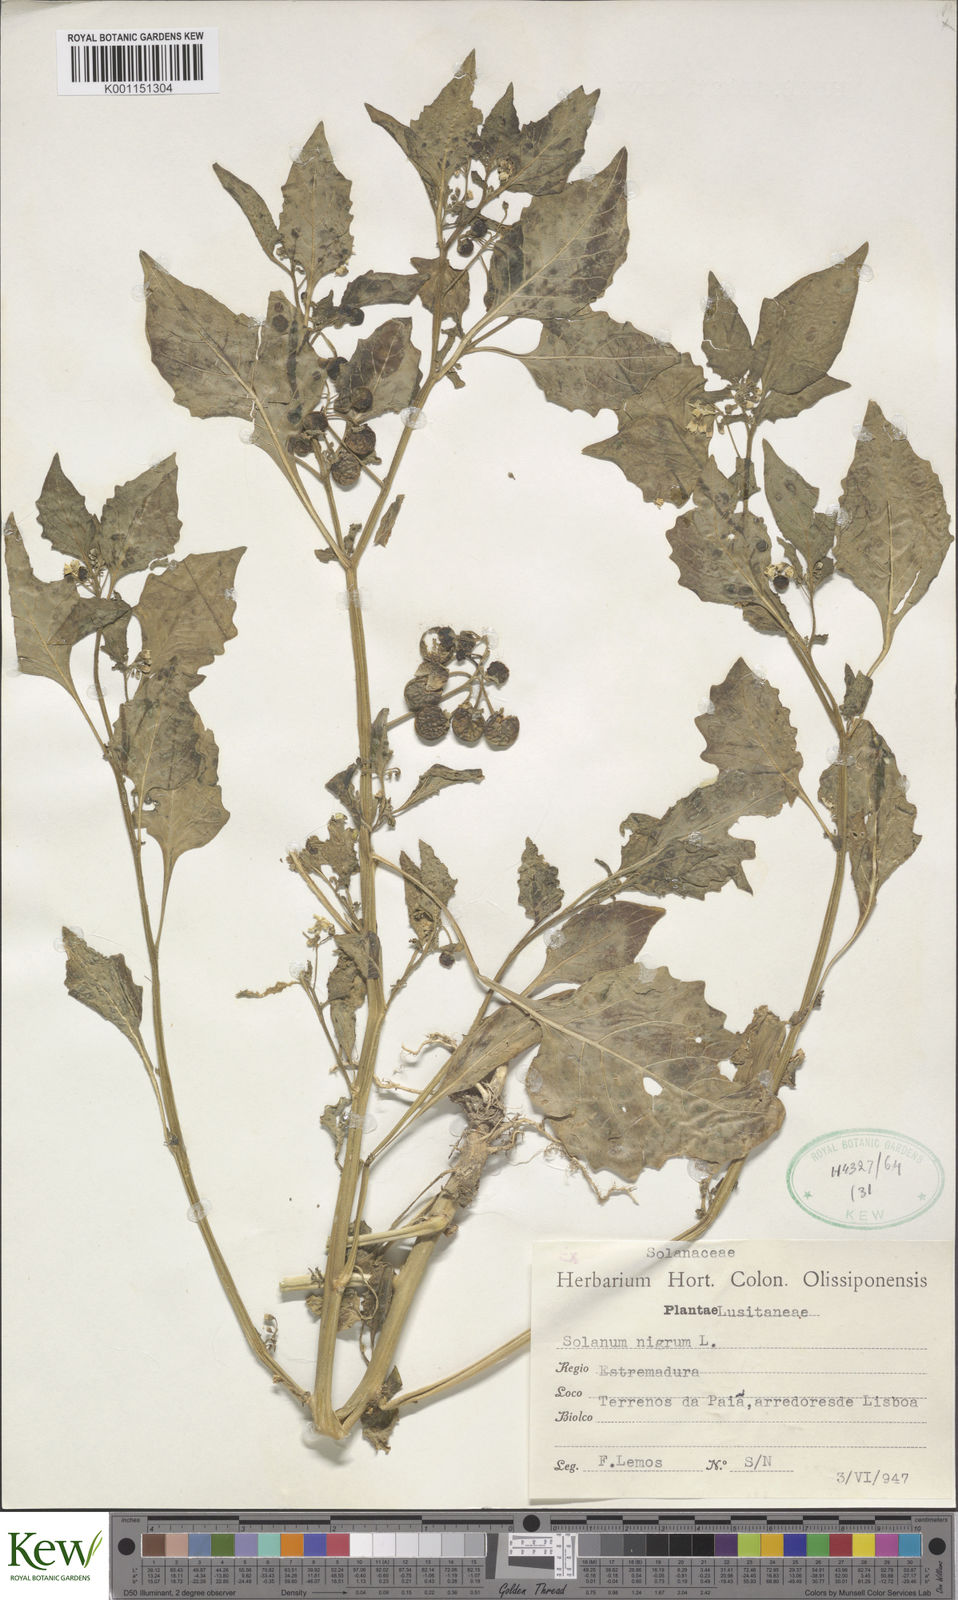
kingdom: Plantae
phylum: Tracheophyta
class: Magnoliopsida
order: Solanales
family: Solanaceae
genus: Solanum
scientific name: Solanum nigrum
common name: Black nightshade
